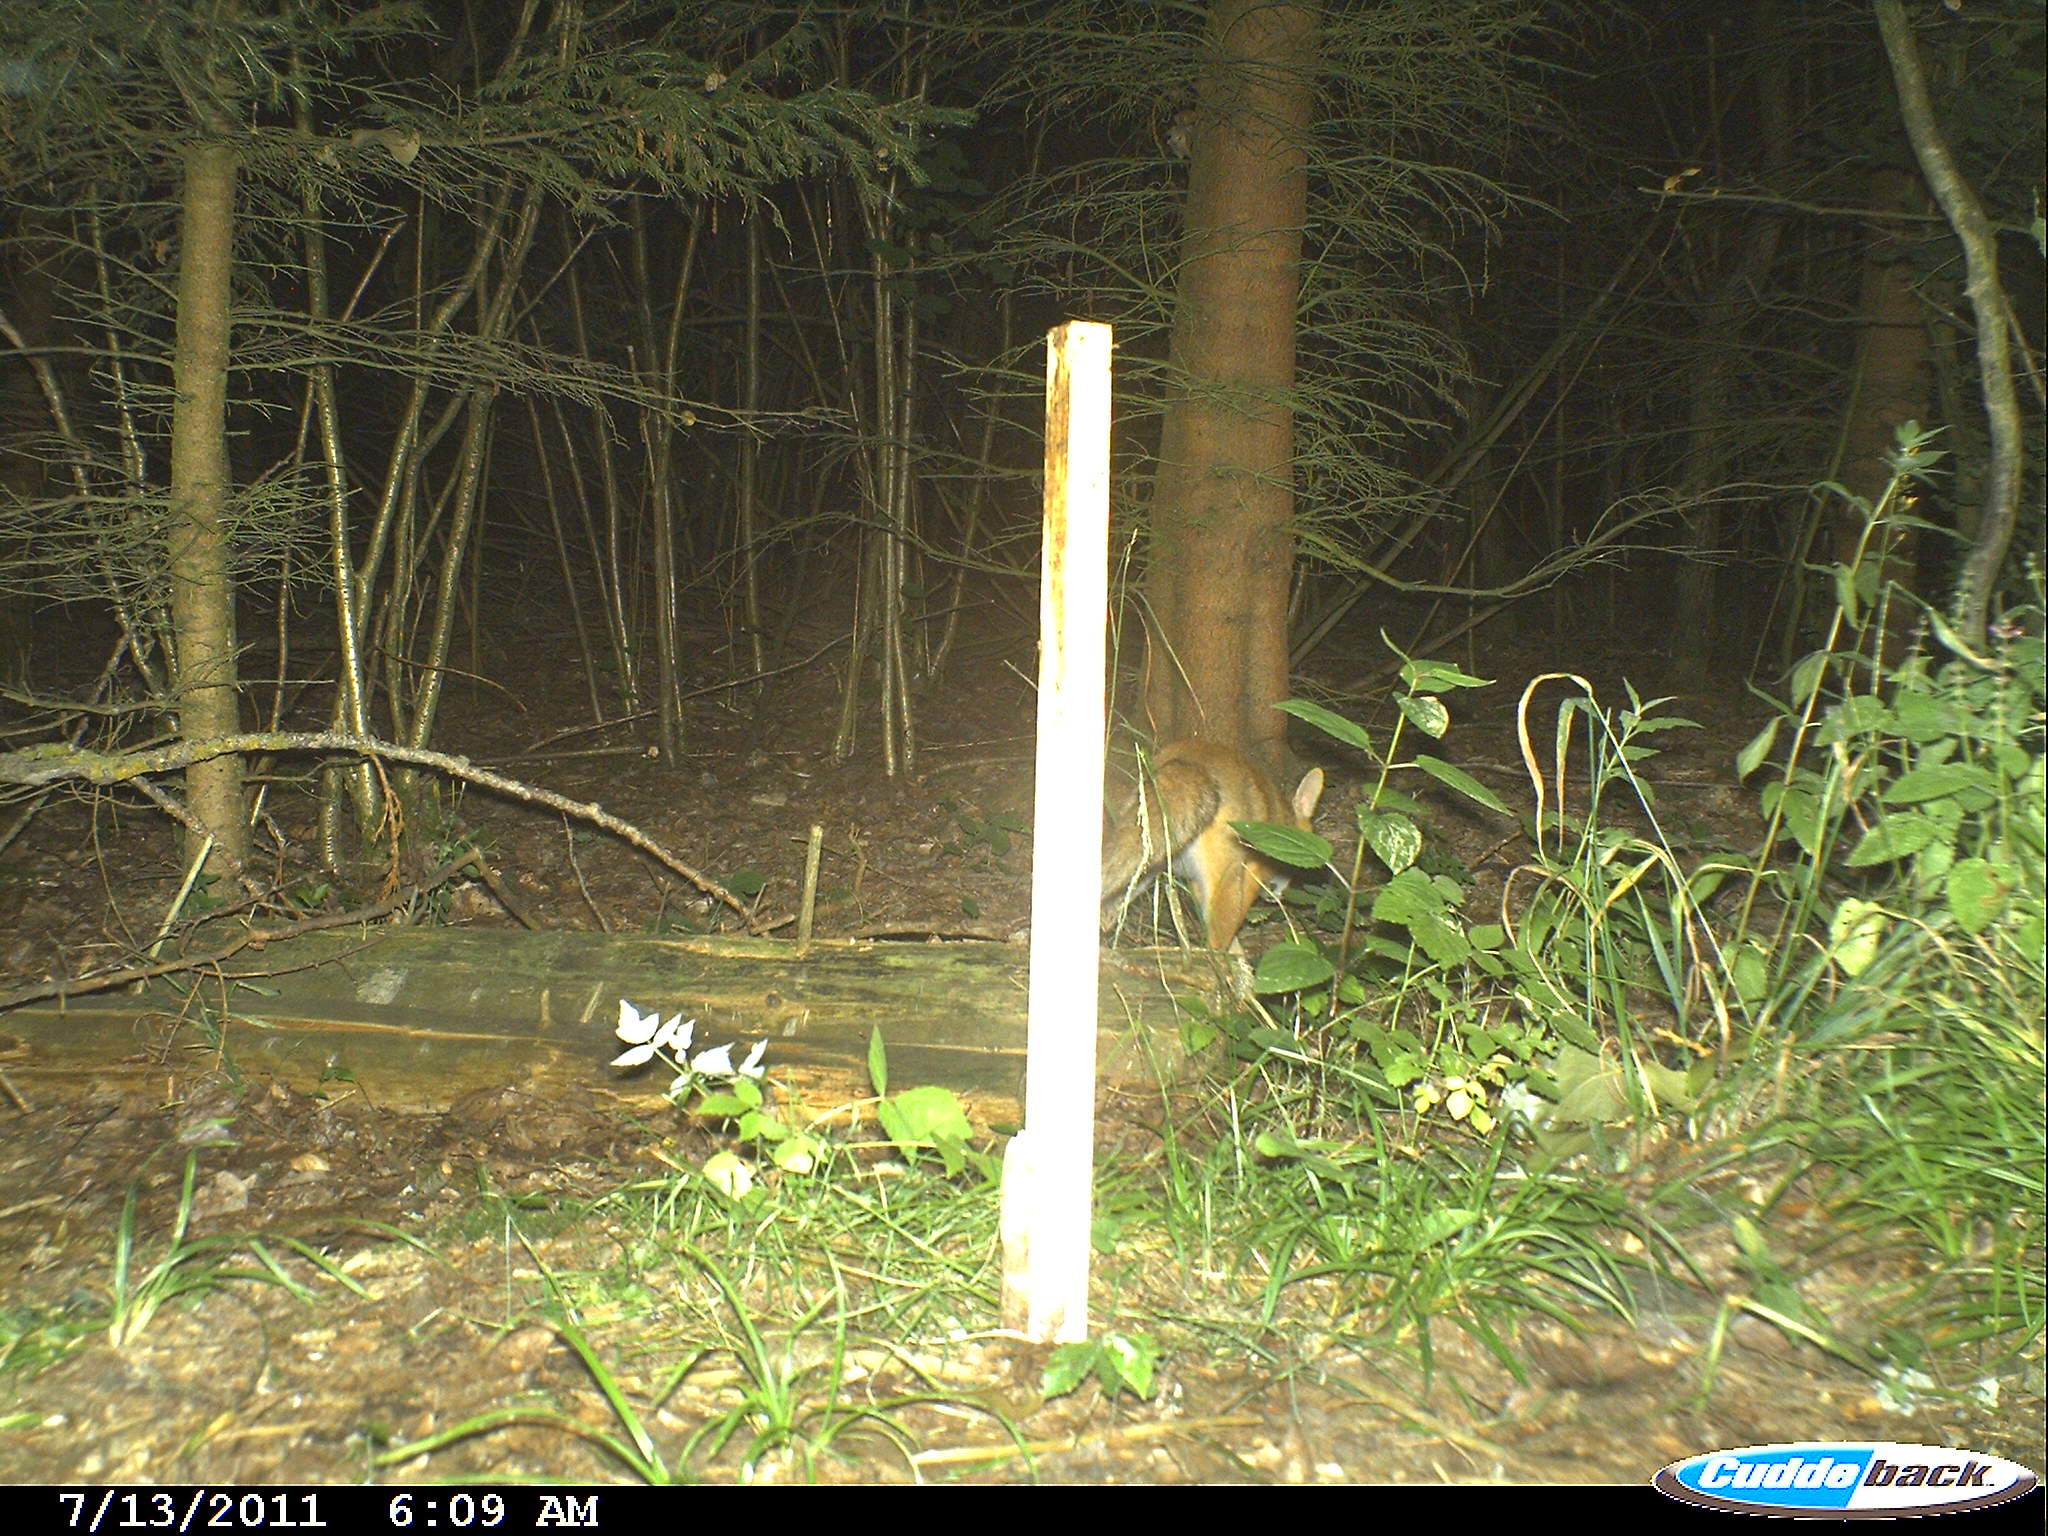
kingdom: Animalia
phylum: Chordata
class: Mammalia
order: Carnivora
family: Canidae
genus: Vulpes
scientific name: Vulpes vulpes
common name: Red fox
